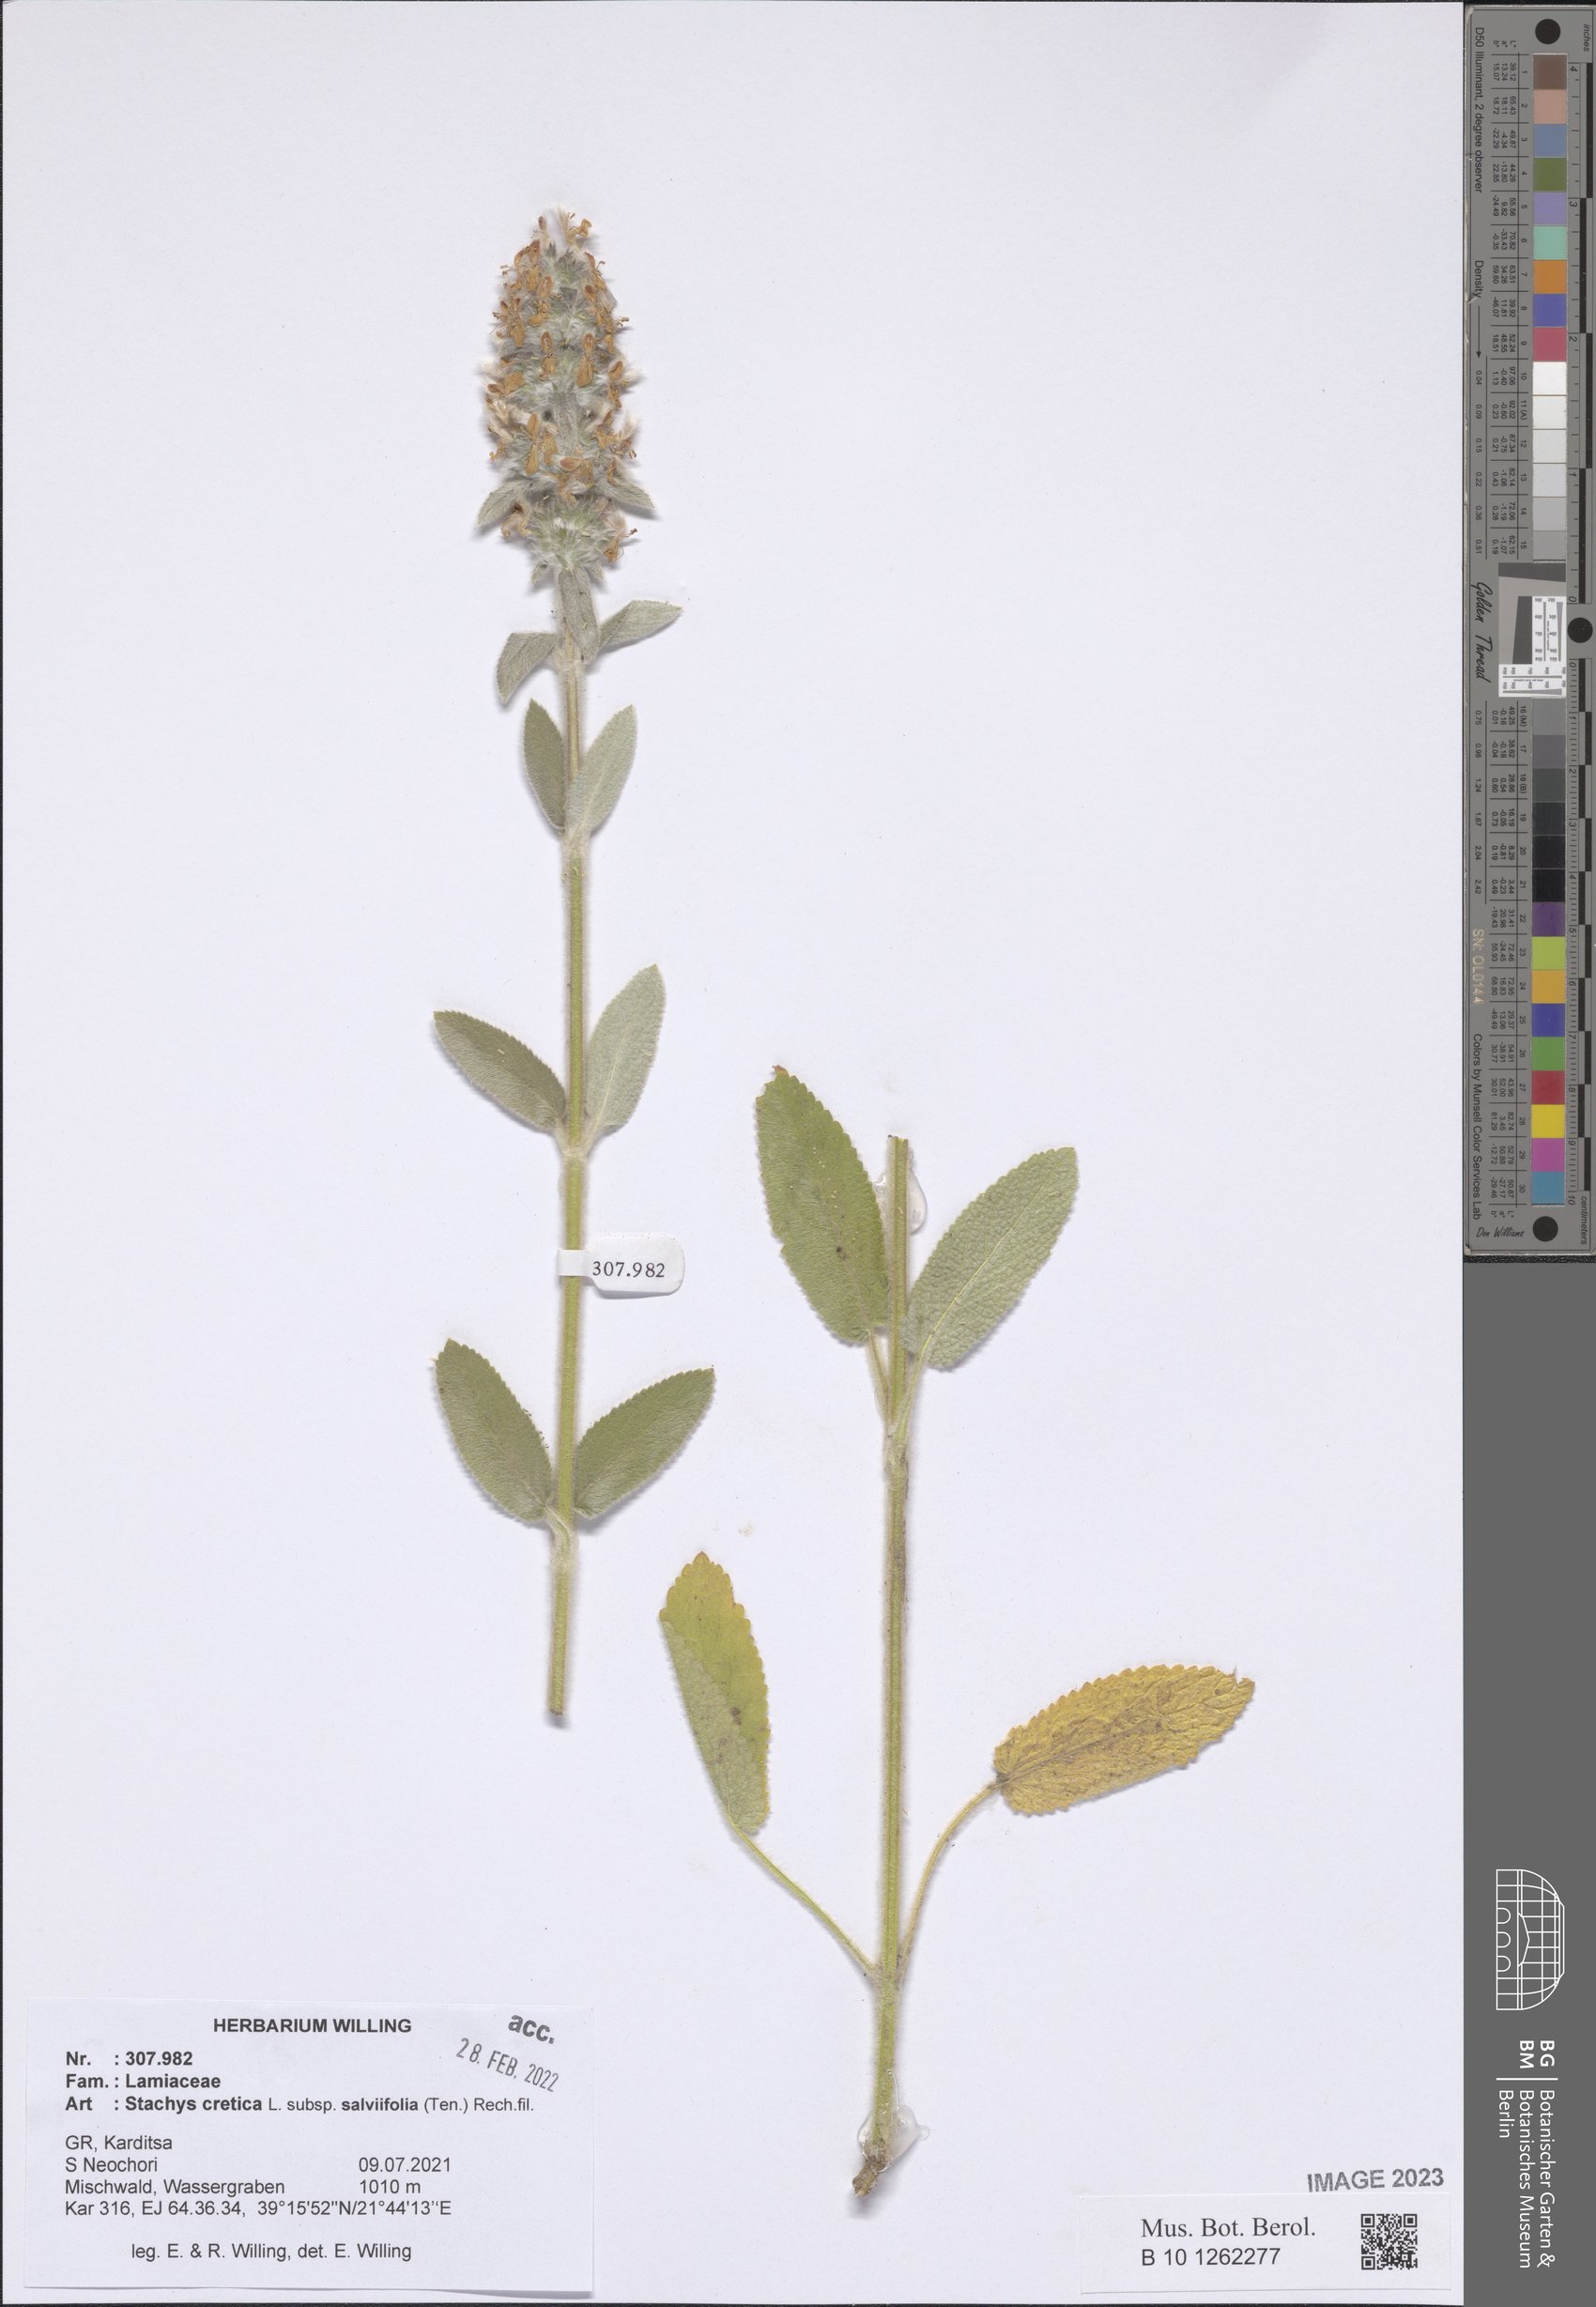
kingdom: Plantae
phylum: Tracheophyta
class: Magnoliopsida
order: Lamiales
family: Lamiaceae
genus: Stachys
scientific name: Stachys cretica
